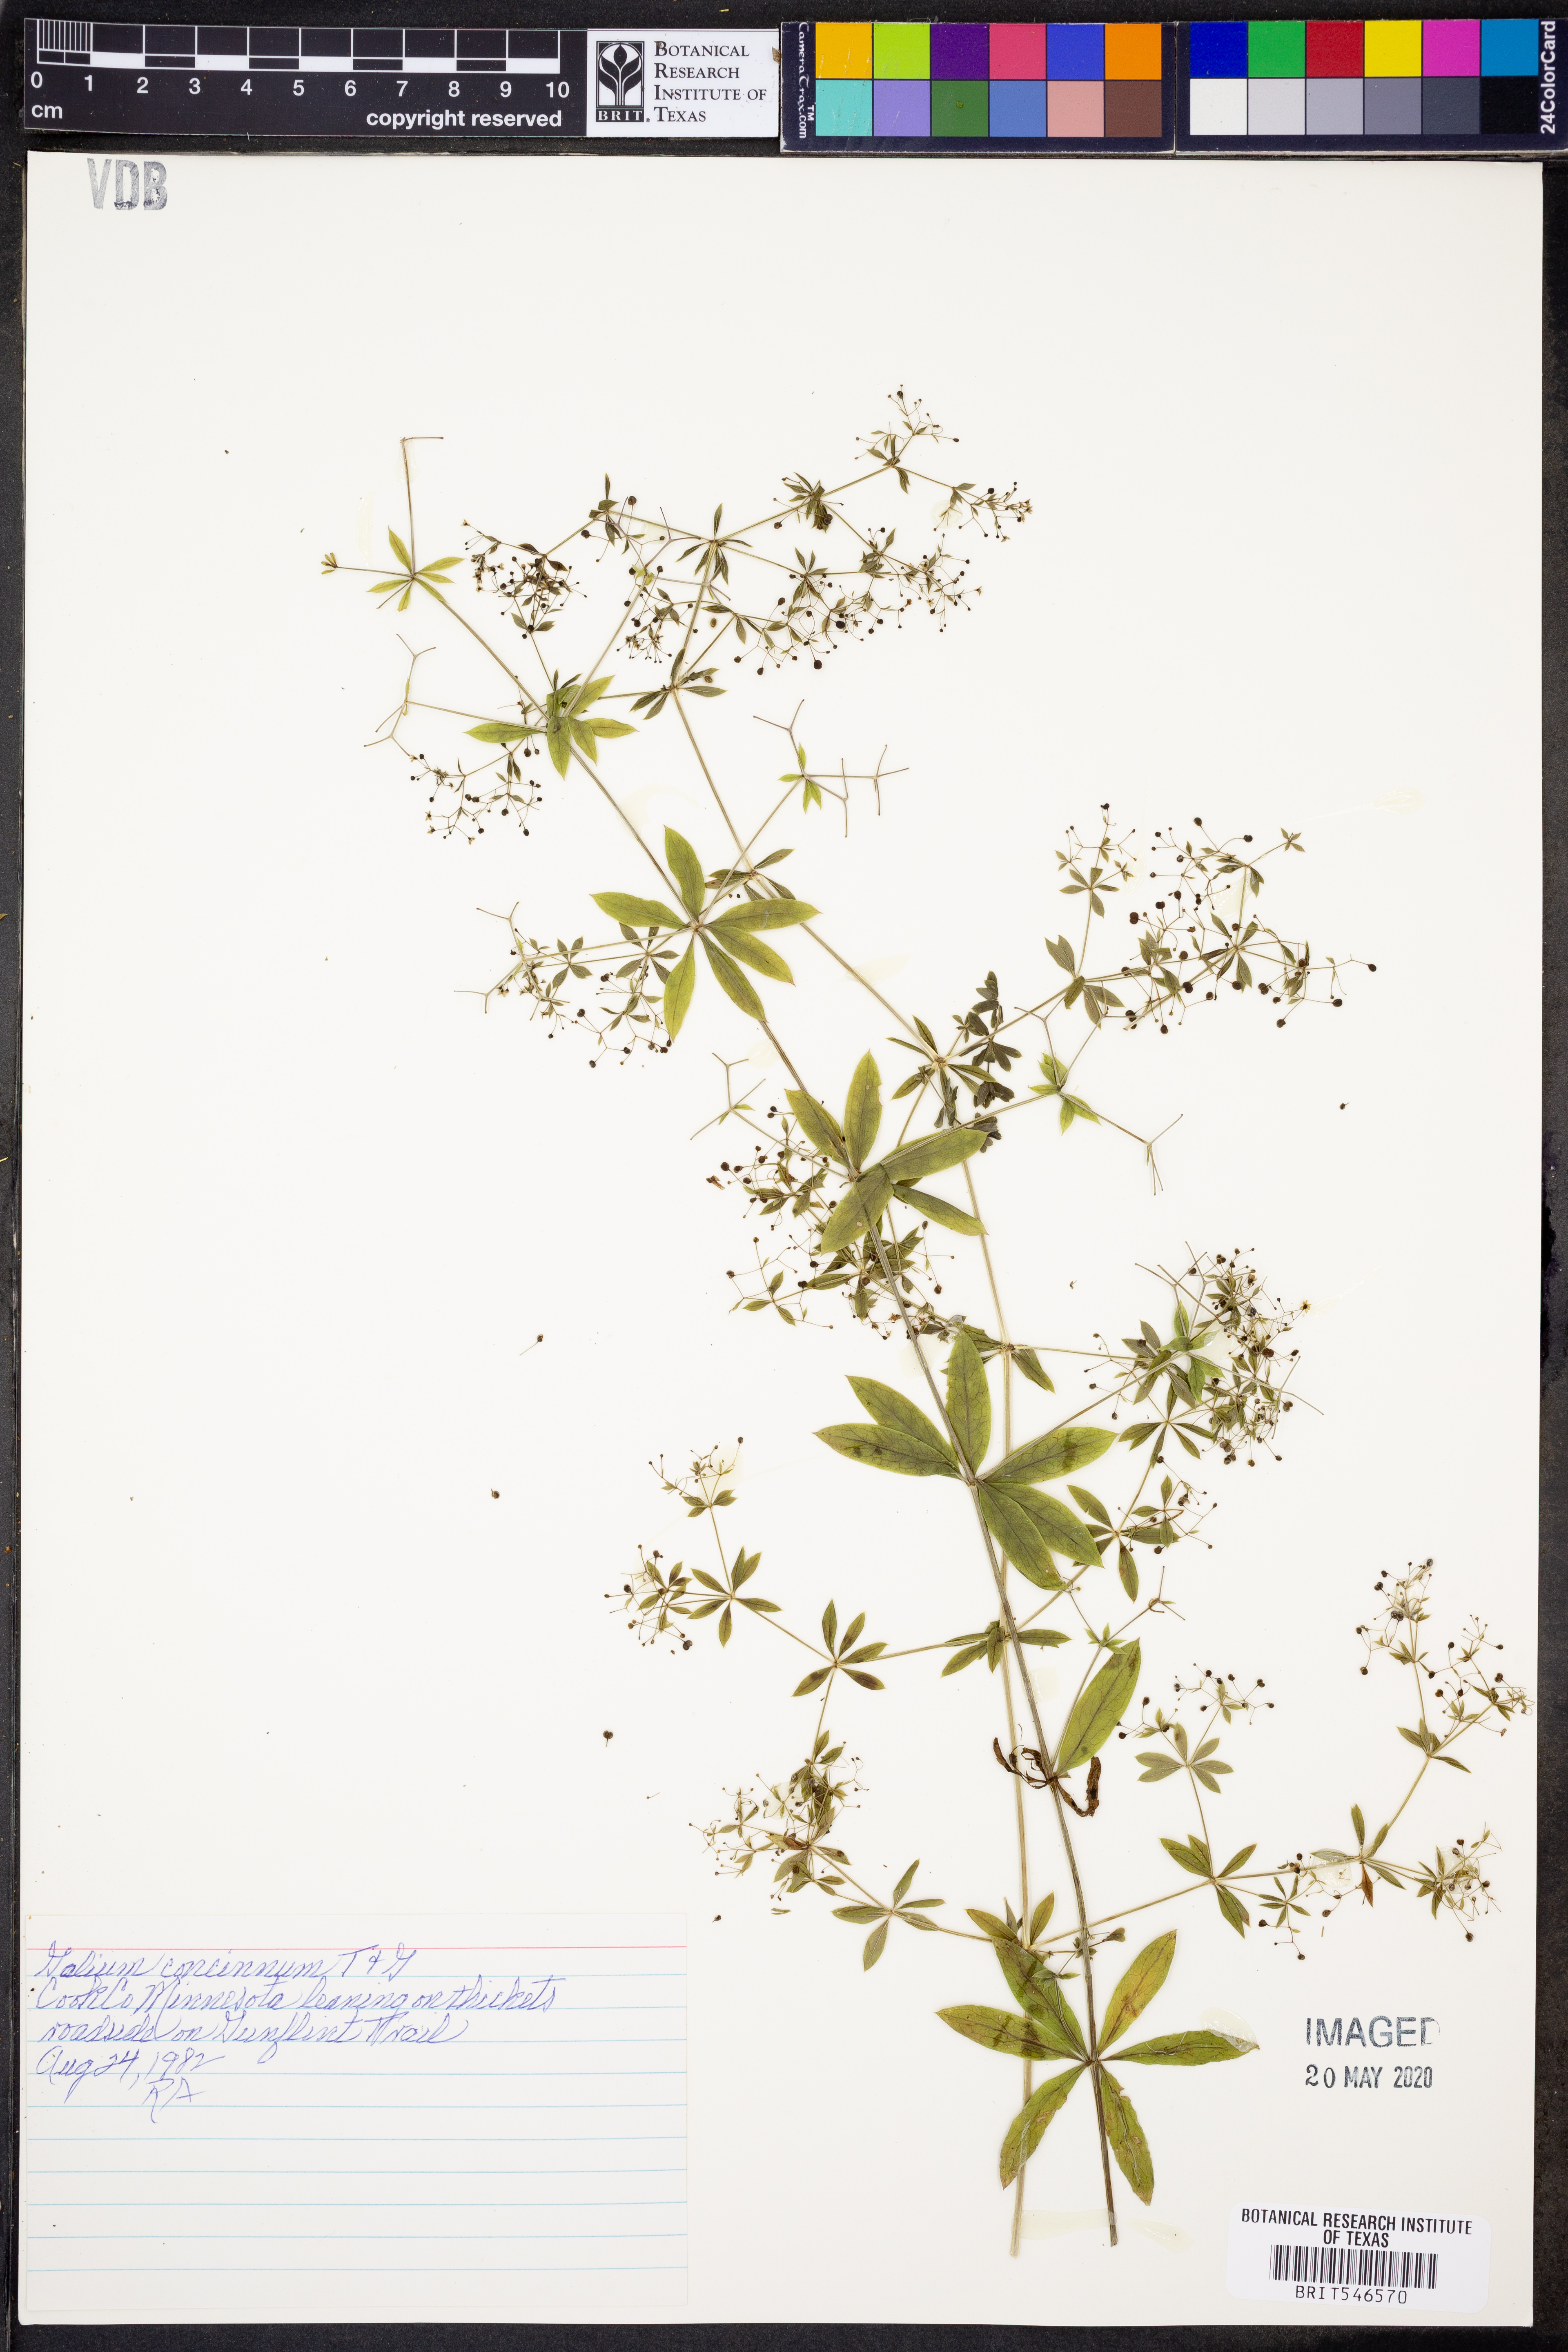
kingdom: Plantae
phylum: Tracheophyta
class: Magnoliopsida
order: Gentianales
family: Rubiaceae
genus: Galium
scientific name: Galium concinnum
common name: Shining bedstraw
